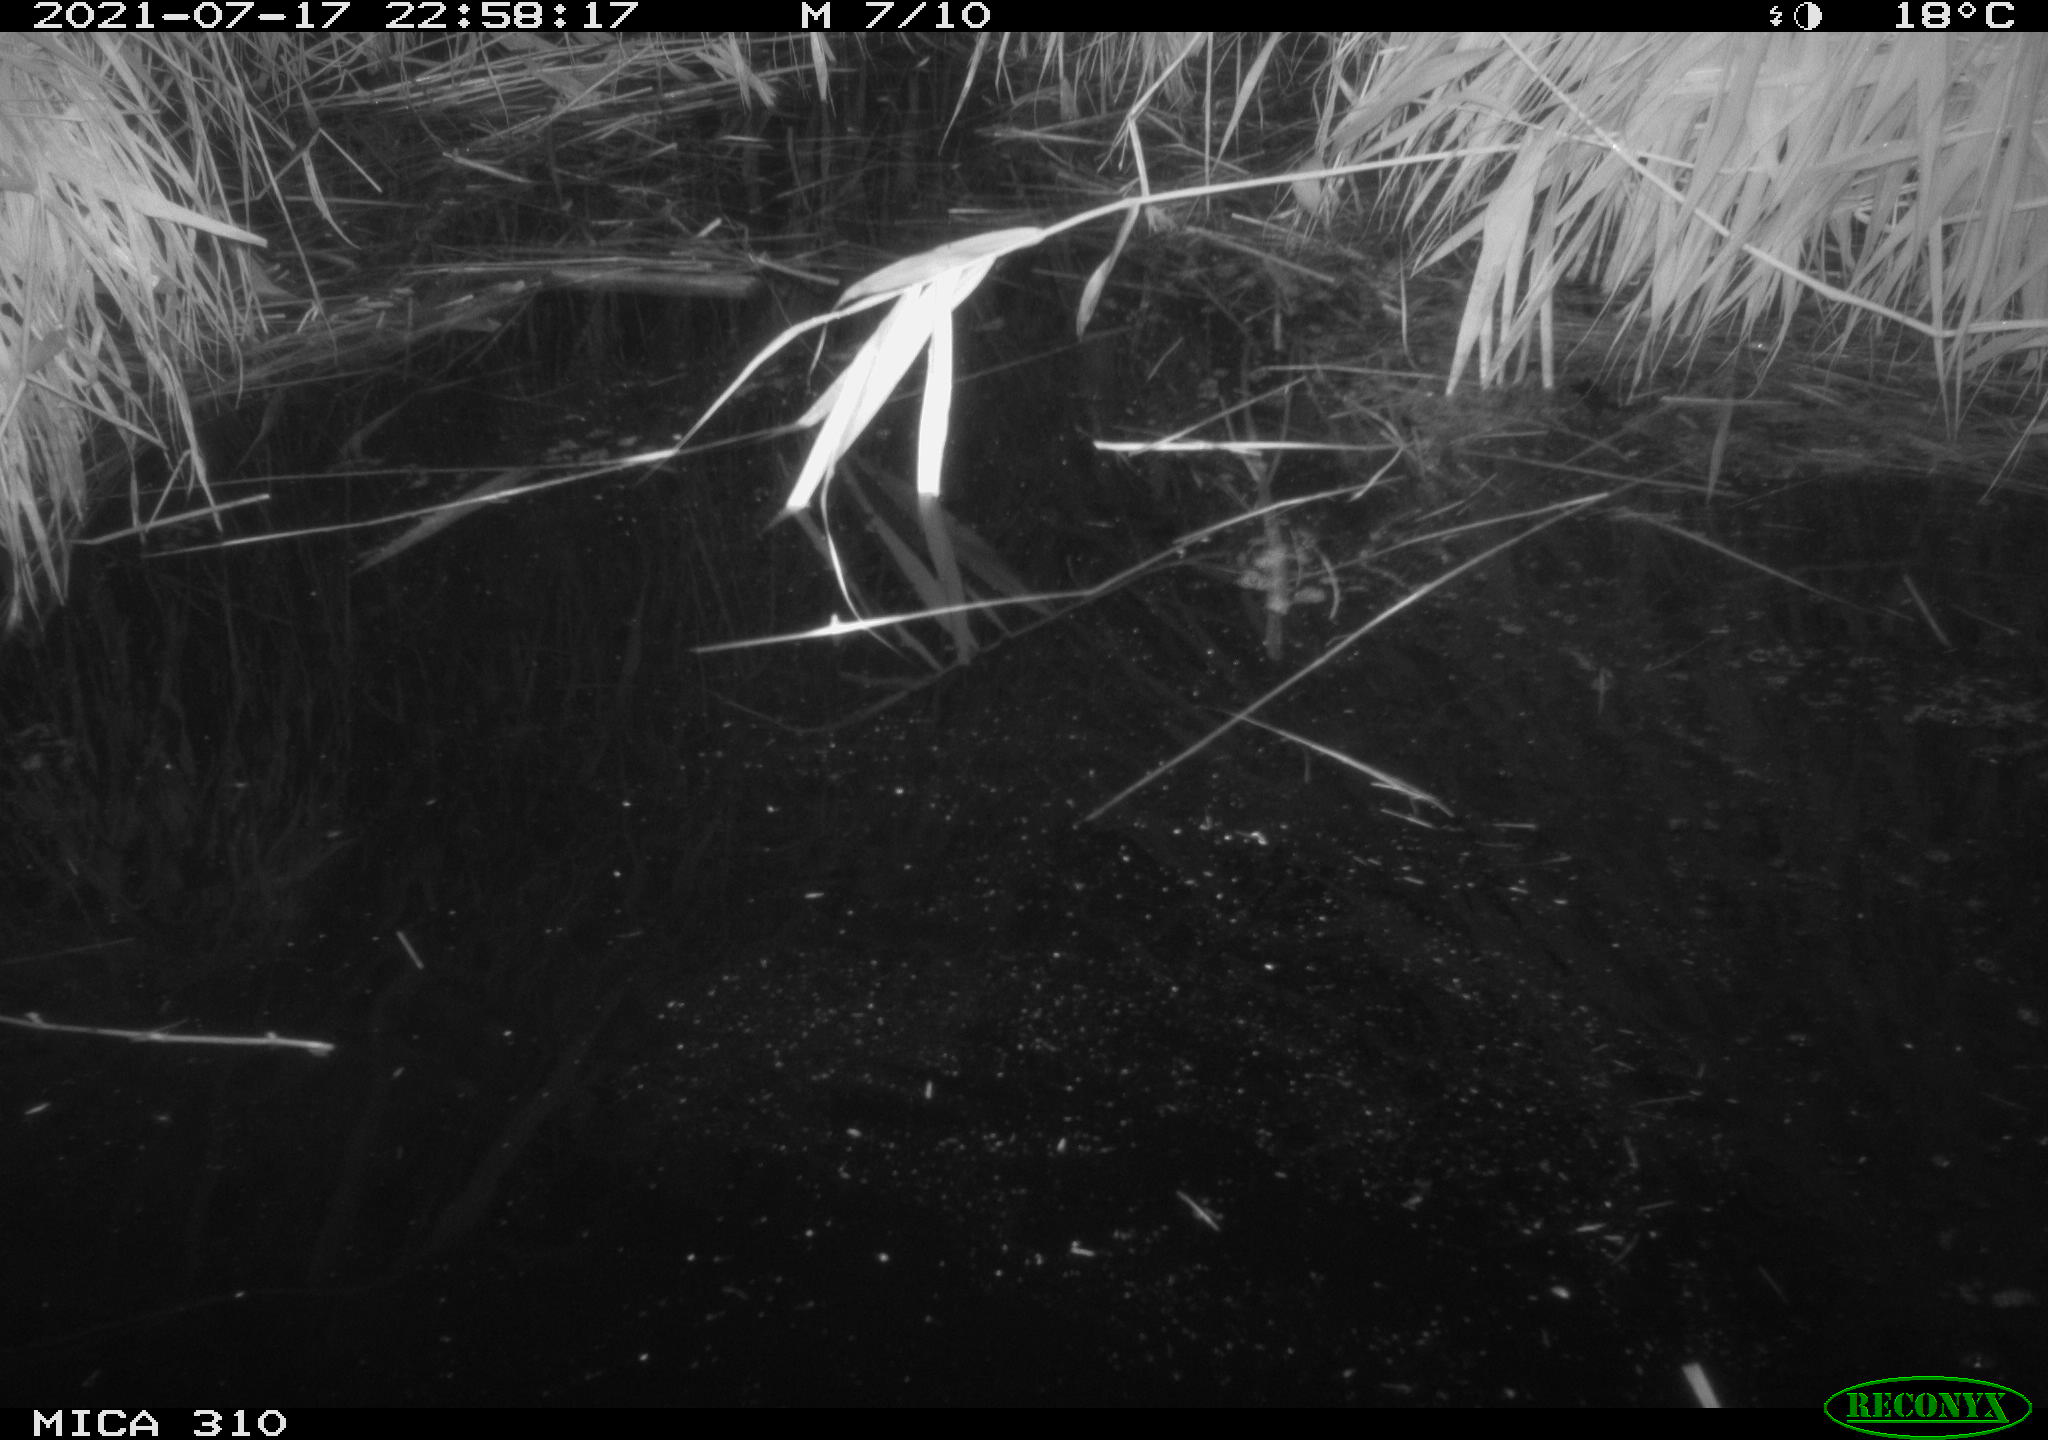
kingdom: Animalia
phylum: Chordata
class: Aves
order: Anseriformes
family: Anatidae
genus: Anas
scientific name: Anas platyrhynchos
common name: Mallard
